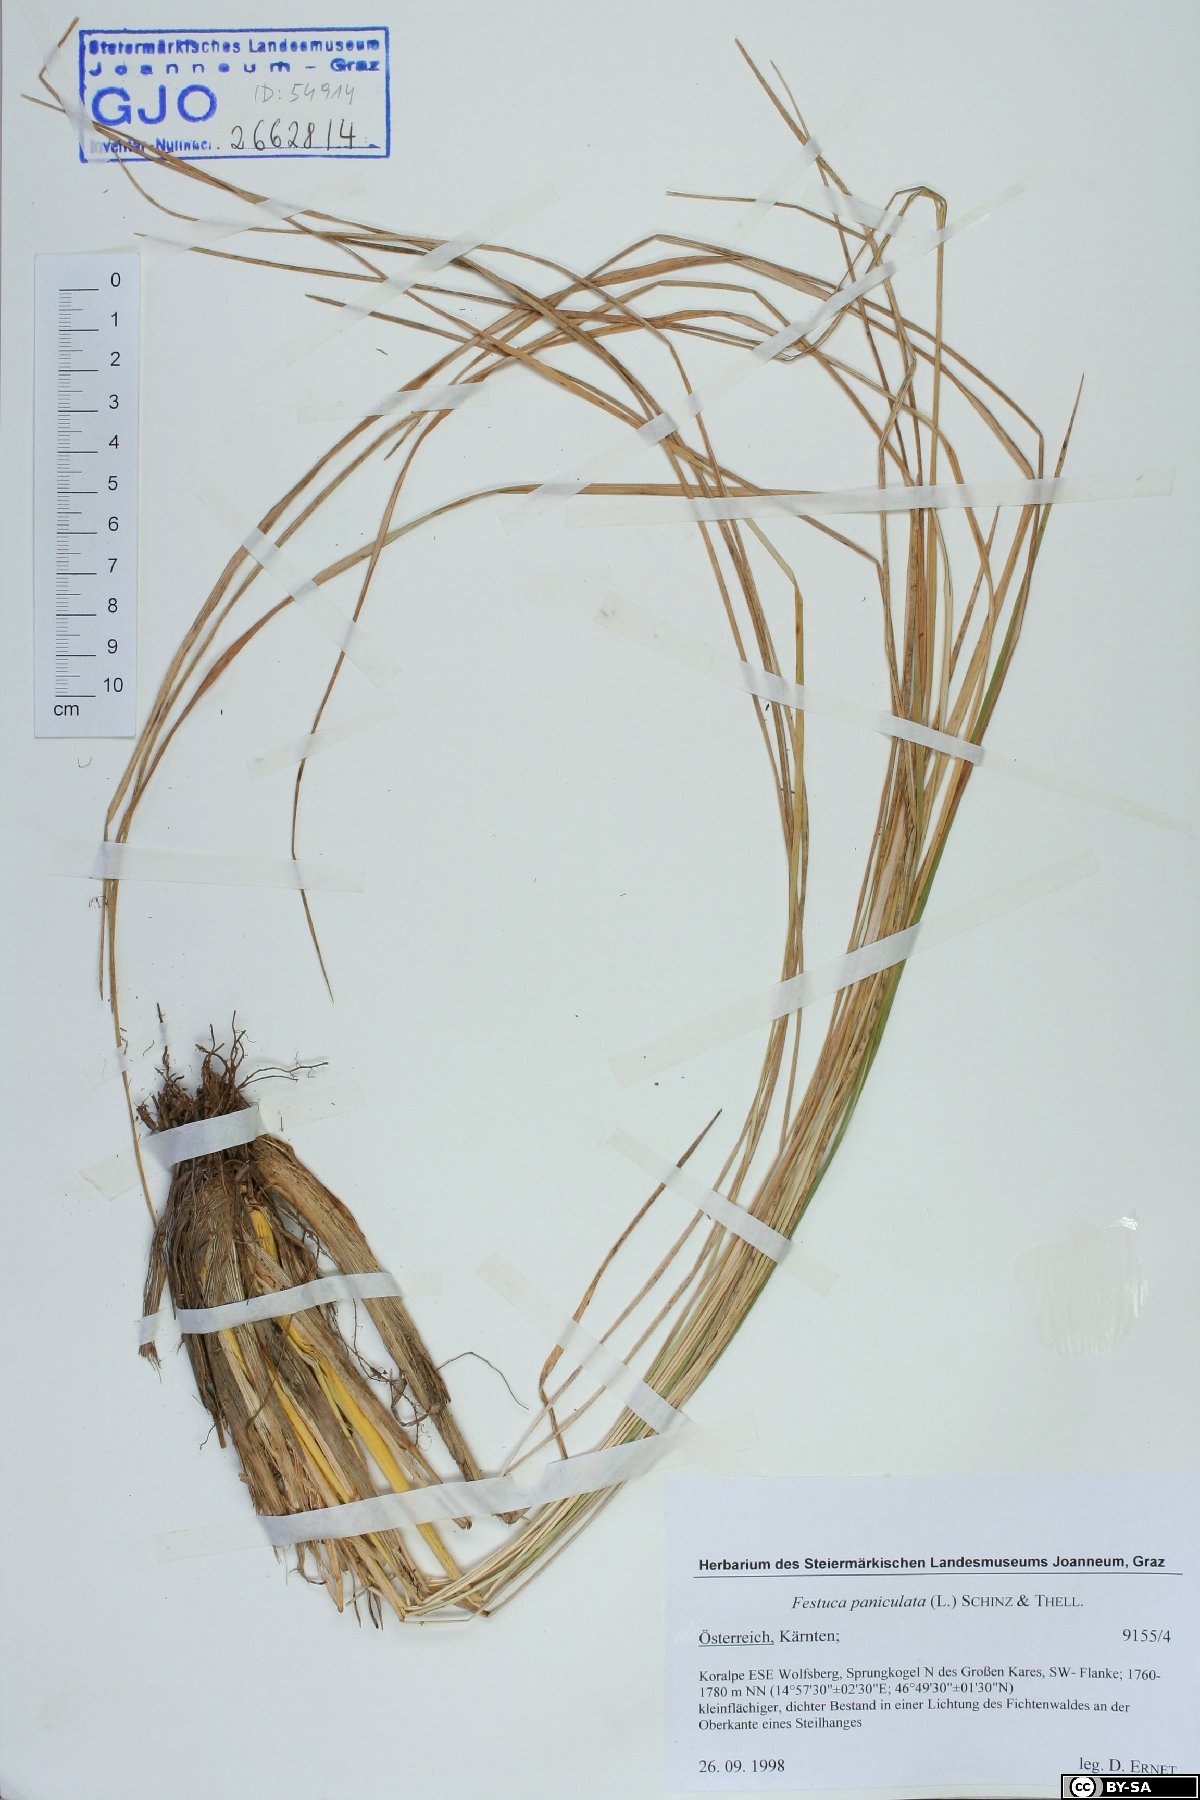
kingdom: Plantae
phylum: Tracheophyta
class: Liliopsida
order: Poales
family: Poaceae
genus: Patzkea
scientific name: Patzkea paniculata
